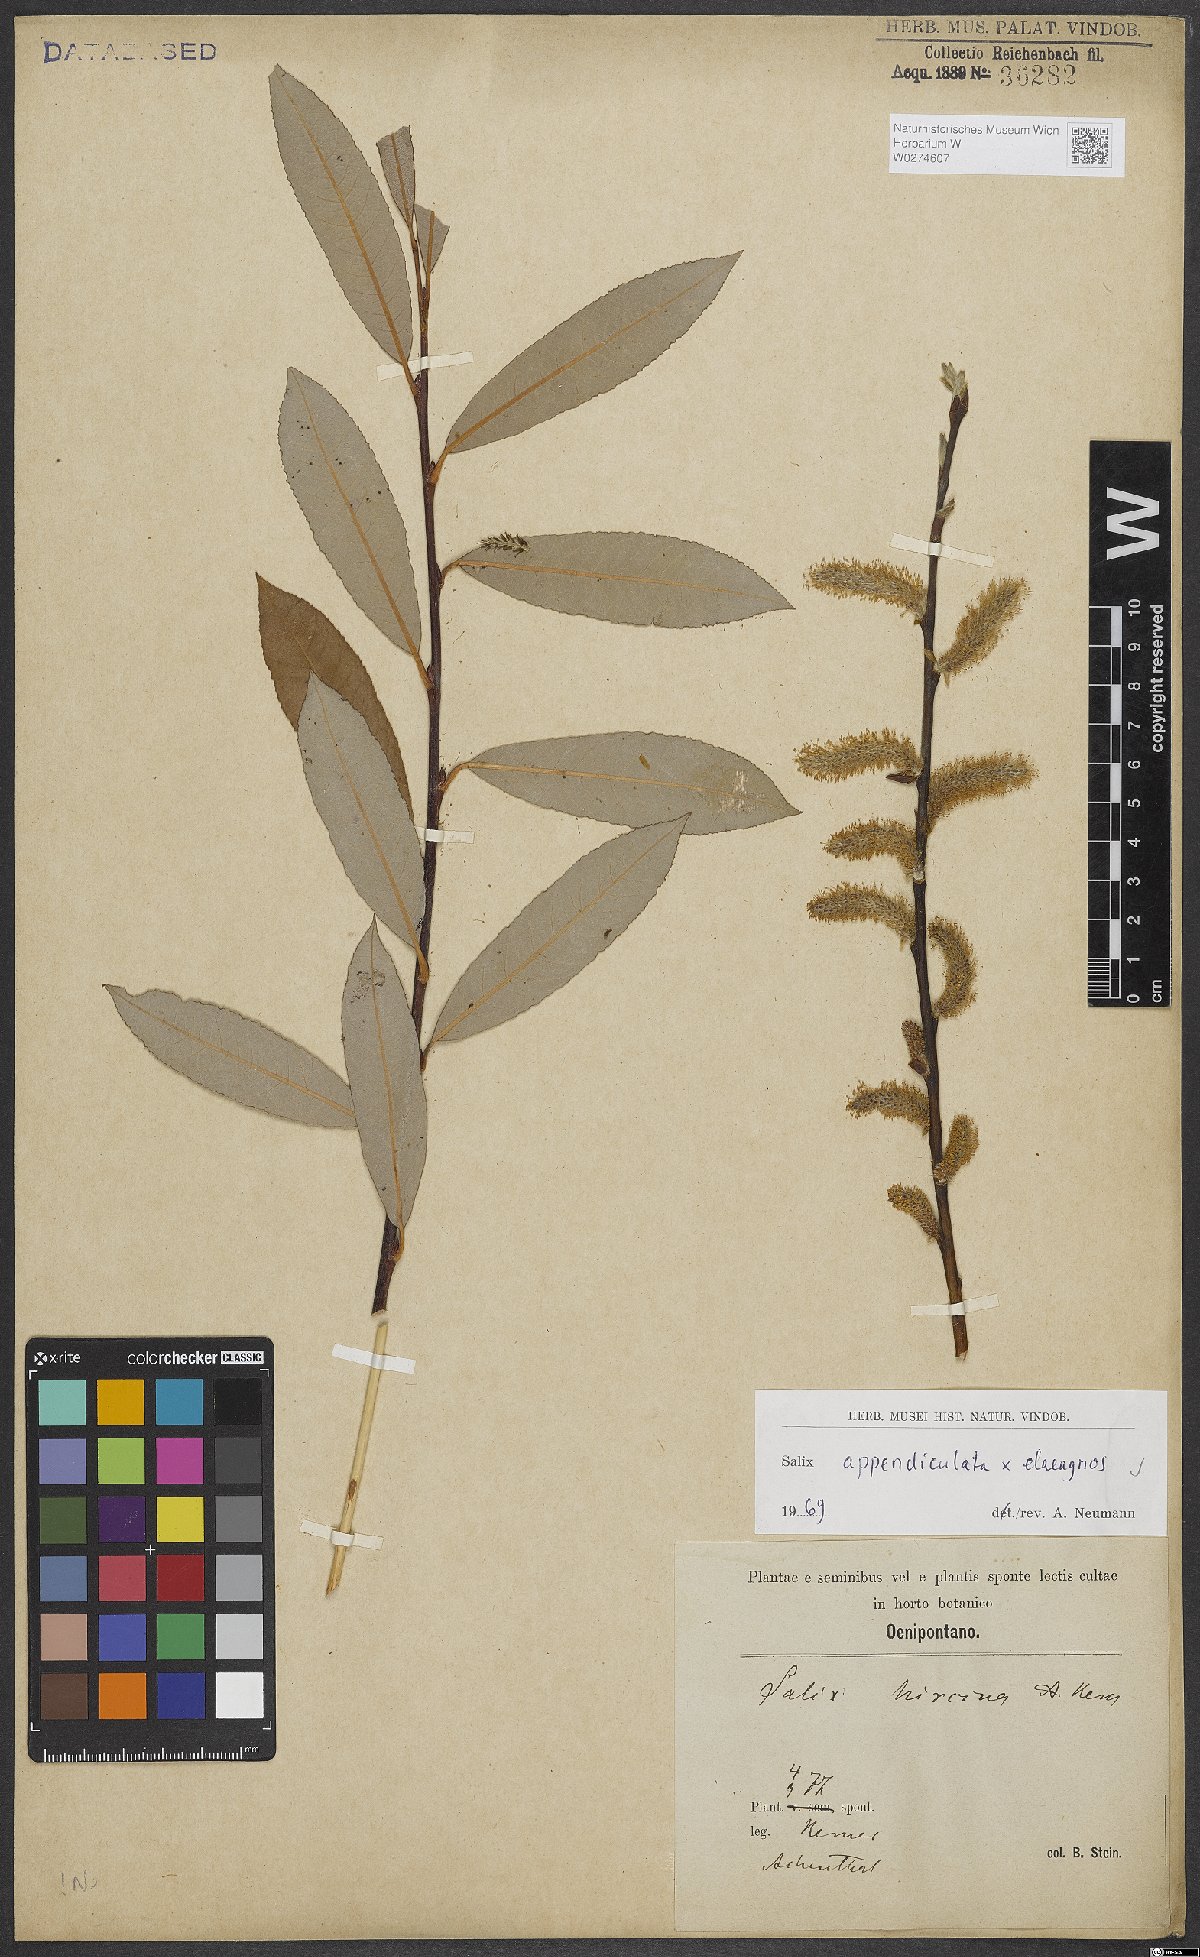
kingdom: Plantae
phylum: Tracheophyta
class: Magnoliopsida
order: Malpighiales
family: Salicaceae
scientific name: Salicaceae
